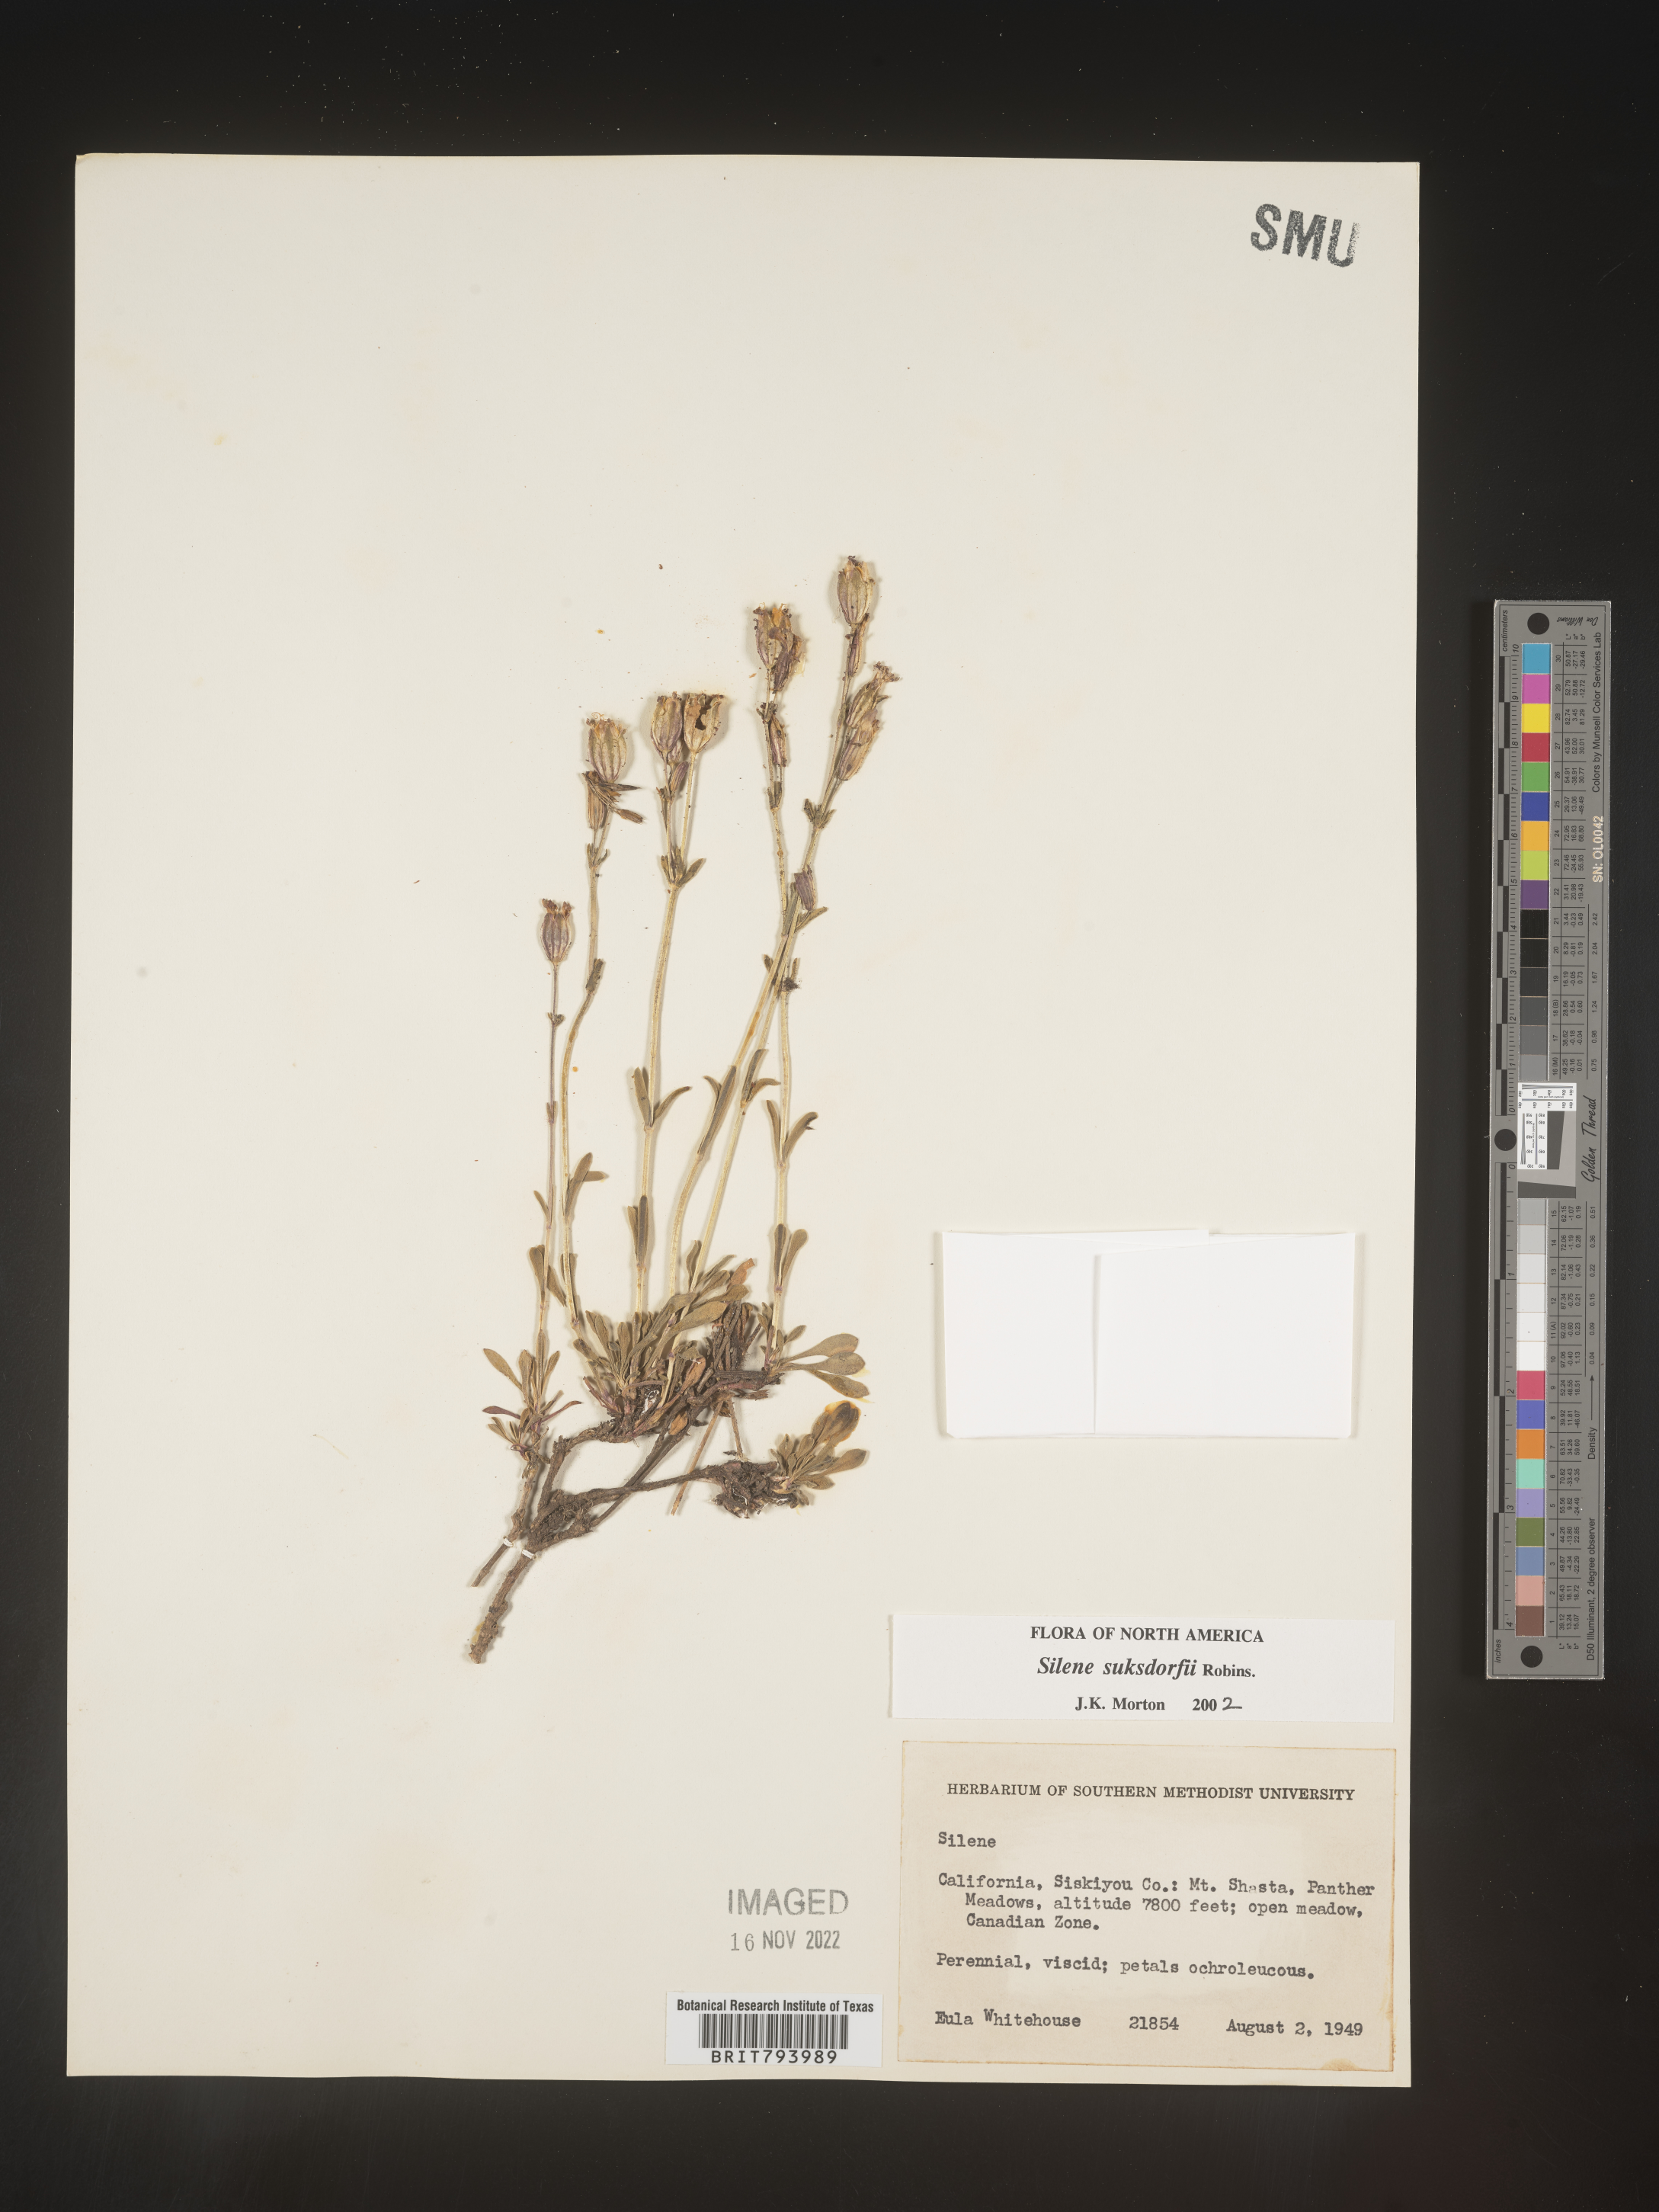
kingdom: Plantae
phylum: Tracheophyta
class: Magnoliopsida
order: Caryophyllales
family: Caryophyllaceae
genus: Silene
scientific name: Silene suksdorfii
